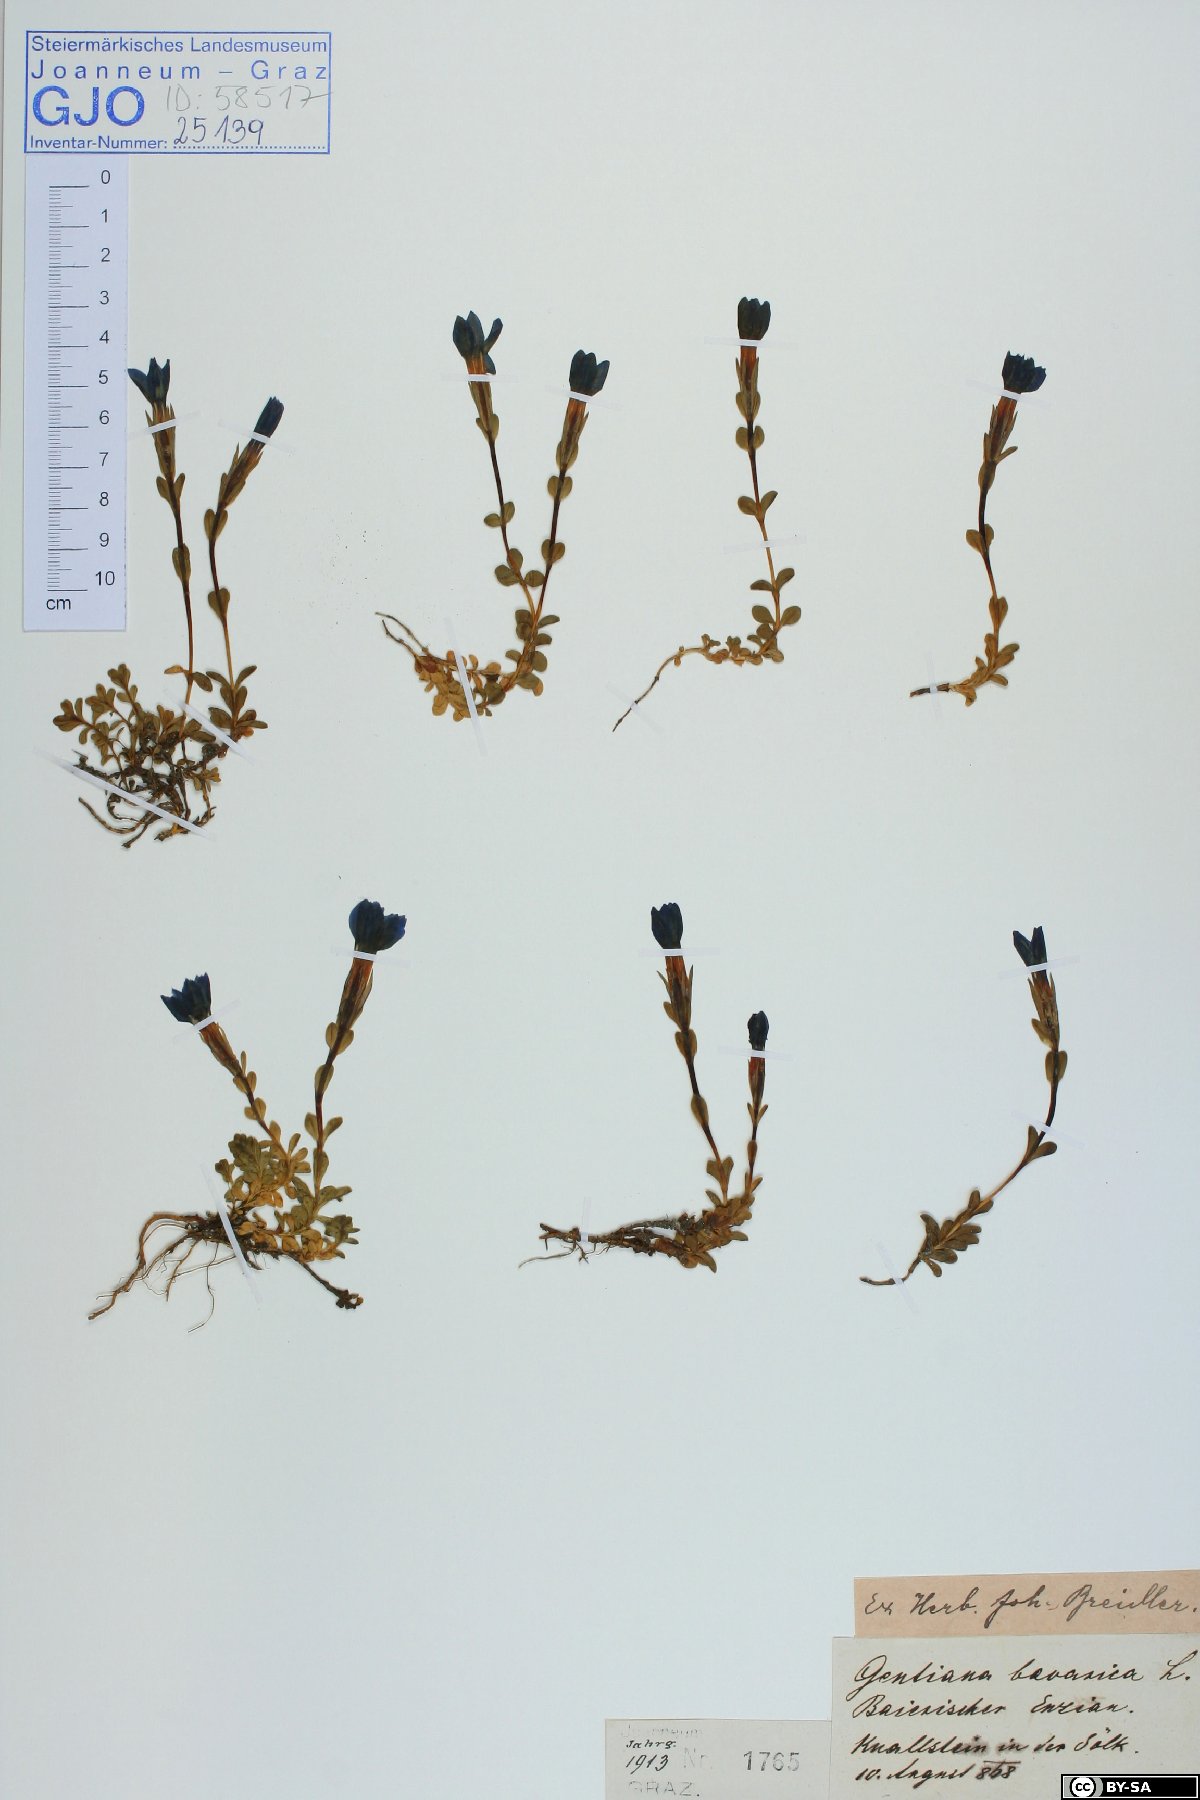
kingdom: Plantae
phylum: Tracheophyta
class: Magnoliopsida
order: Gentianales
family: Gentianaceae
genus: Gentiana
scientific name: Gentiana bavarica
